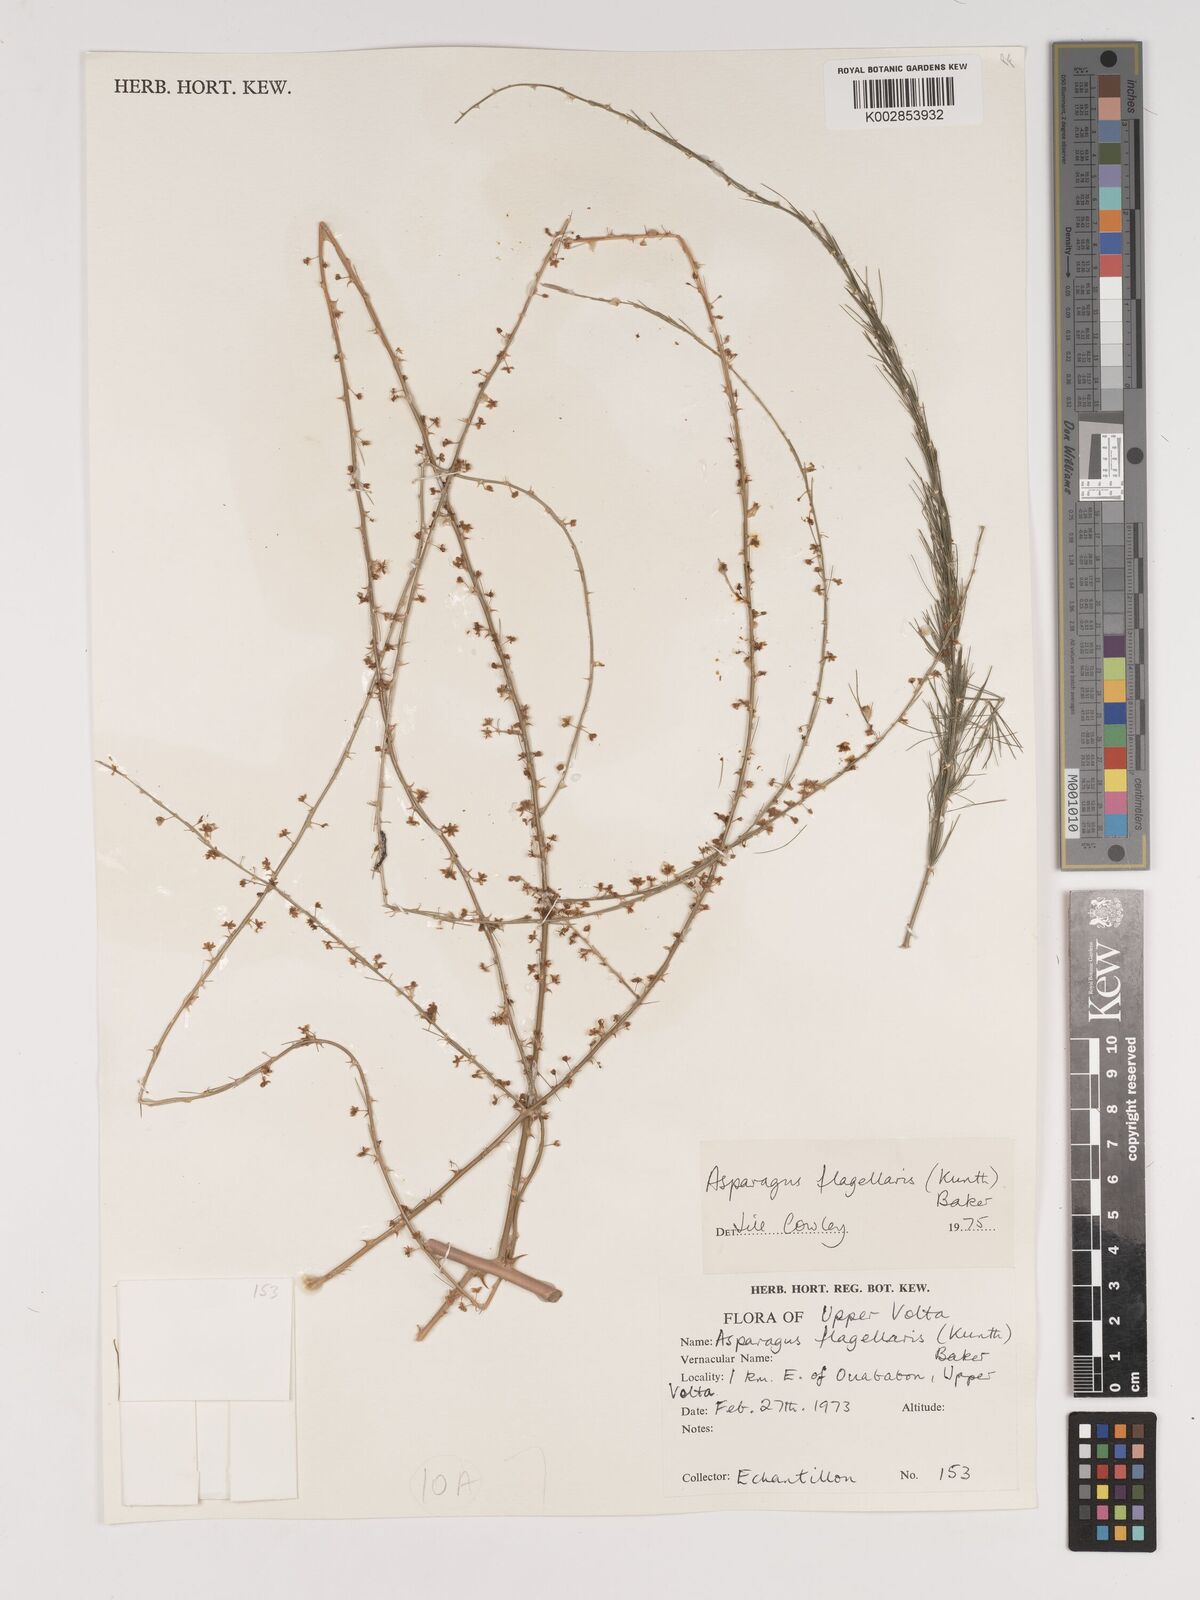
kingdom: Plantae
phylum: Tracheophyta
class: Liliopsida
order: Asparagales
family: Asparagaceae
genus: Asparagus
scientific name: Asparagus flagellaris
